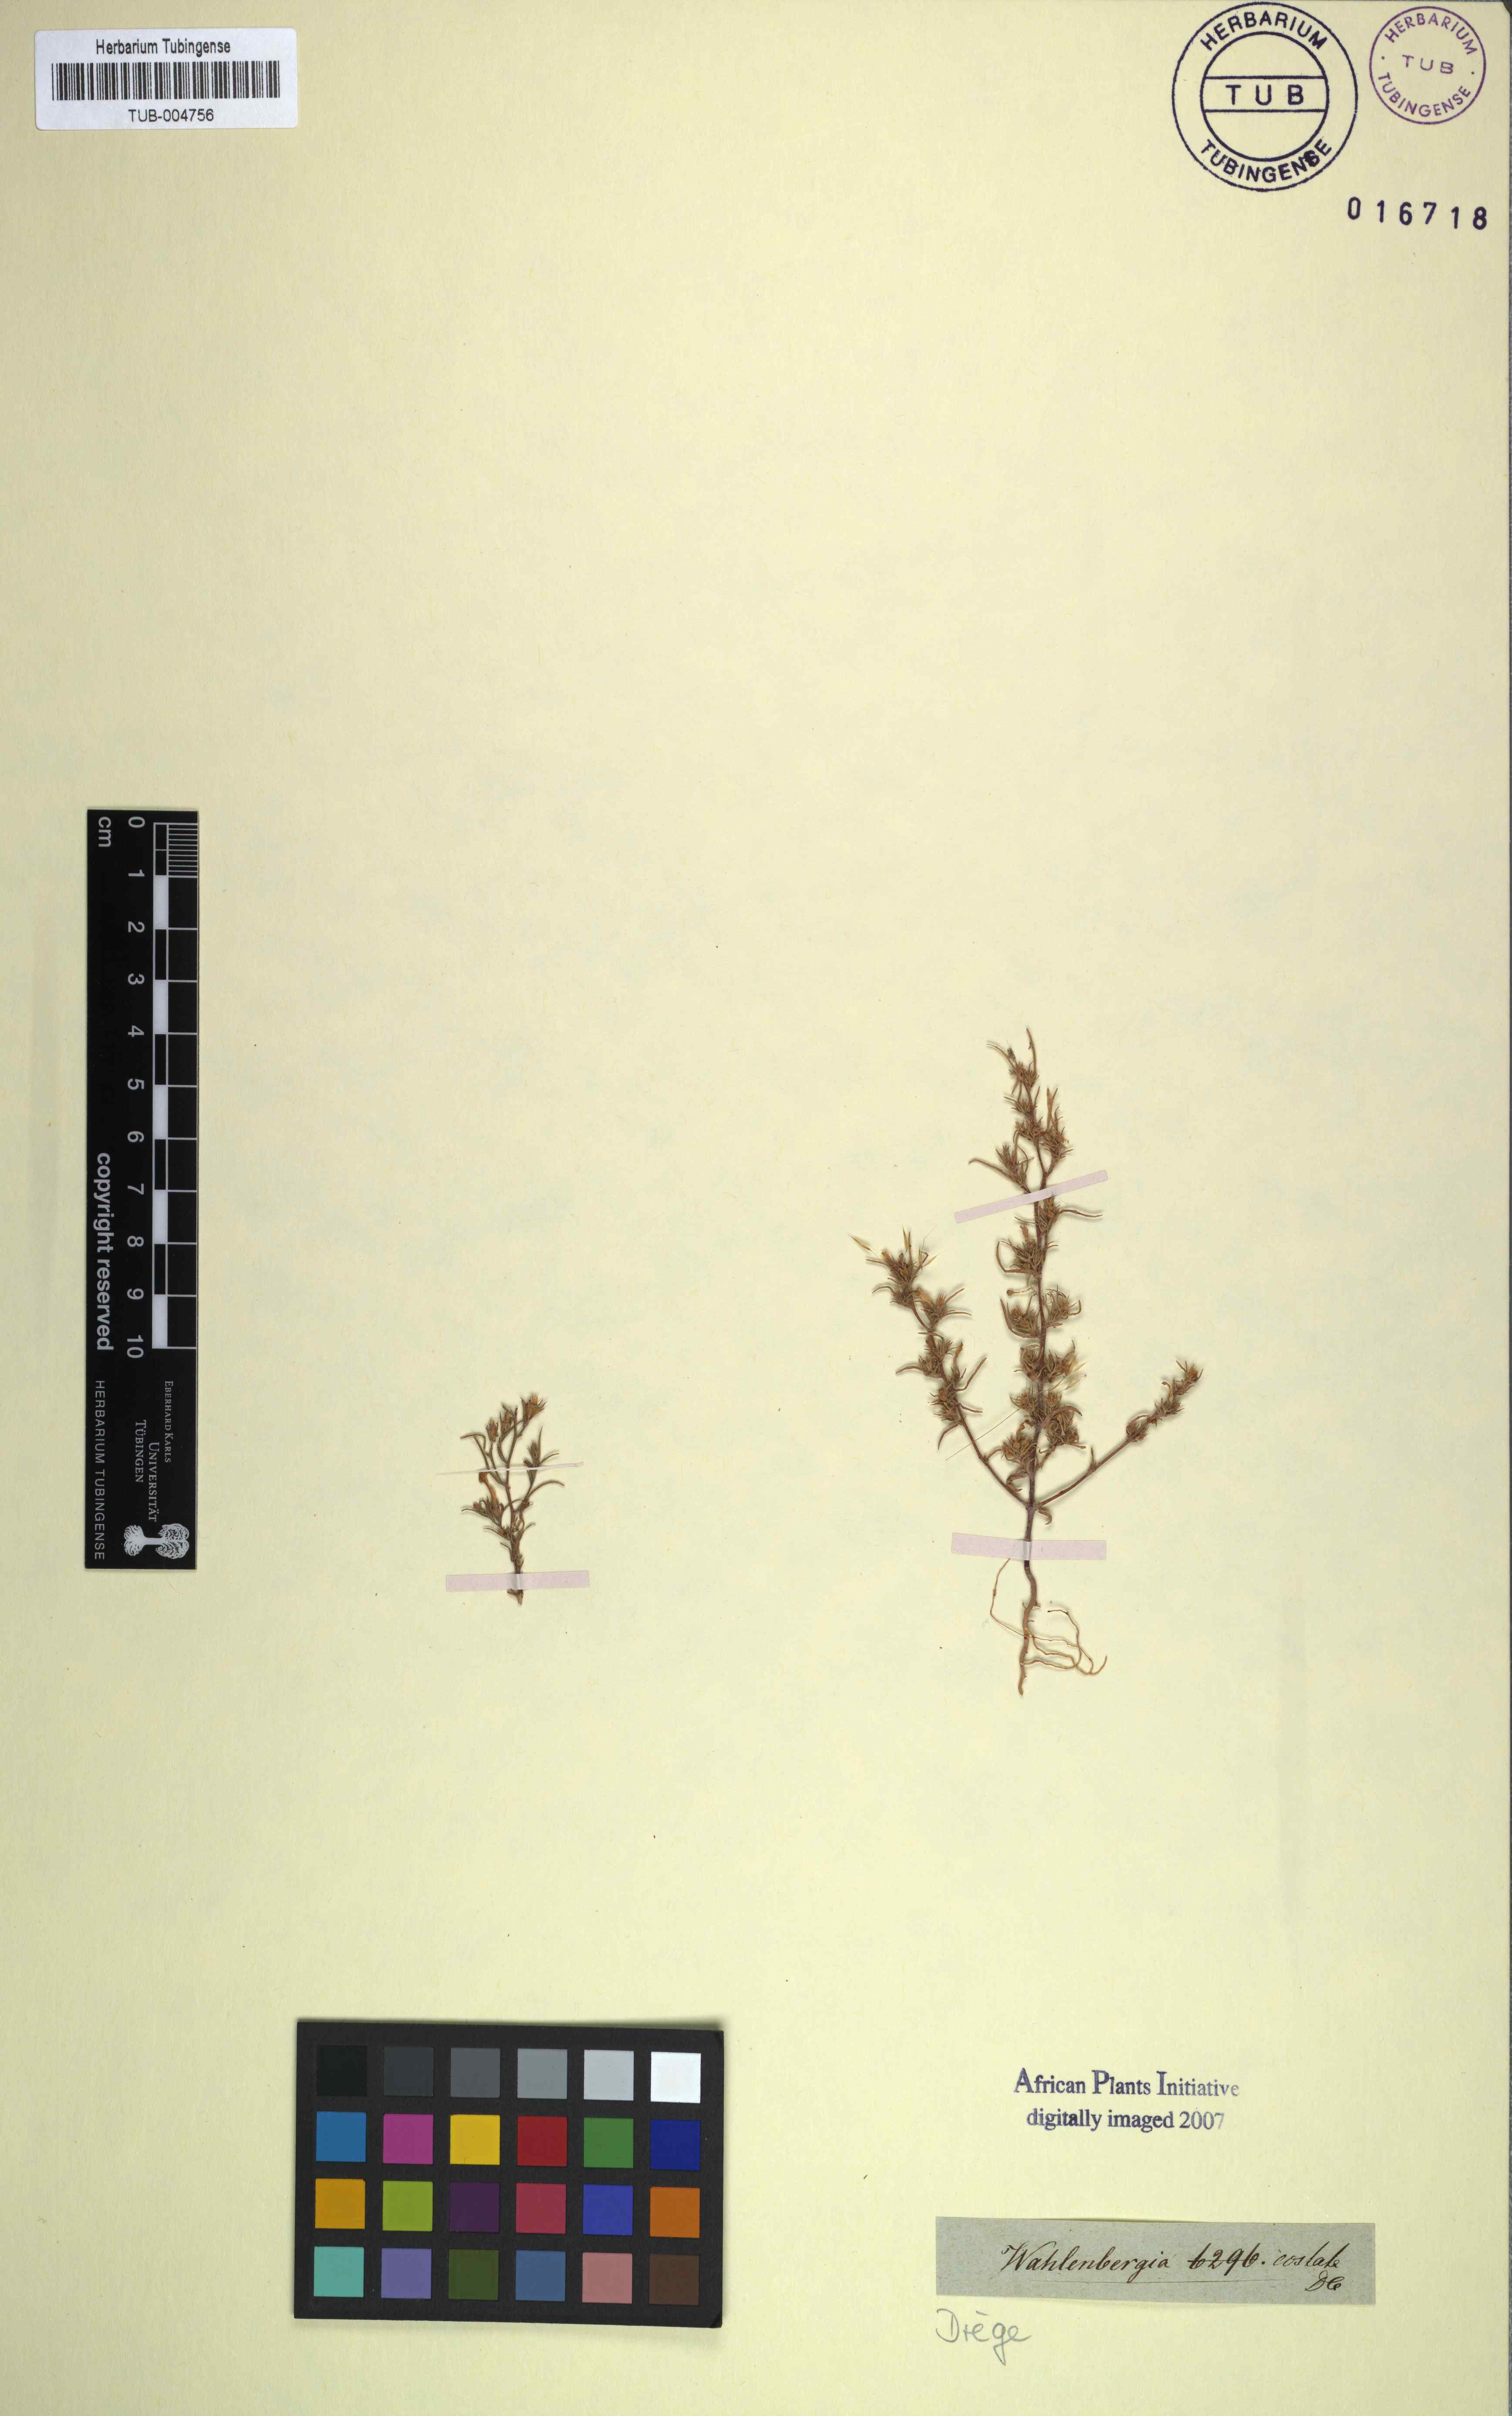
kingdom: Plantae
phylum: Tracheophyta
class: Magnoliopsida
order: Asterales
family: Campanulaceae
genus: Wahlenbergia
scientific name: Wahlenbergia costata
